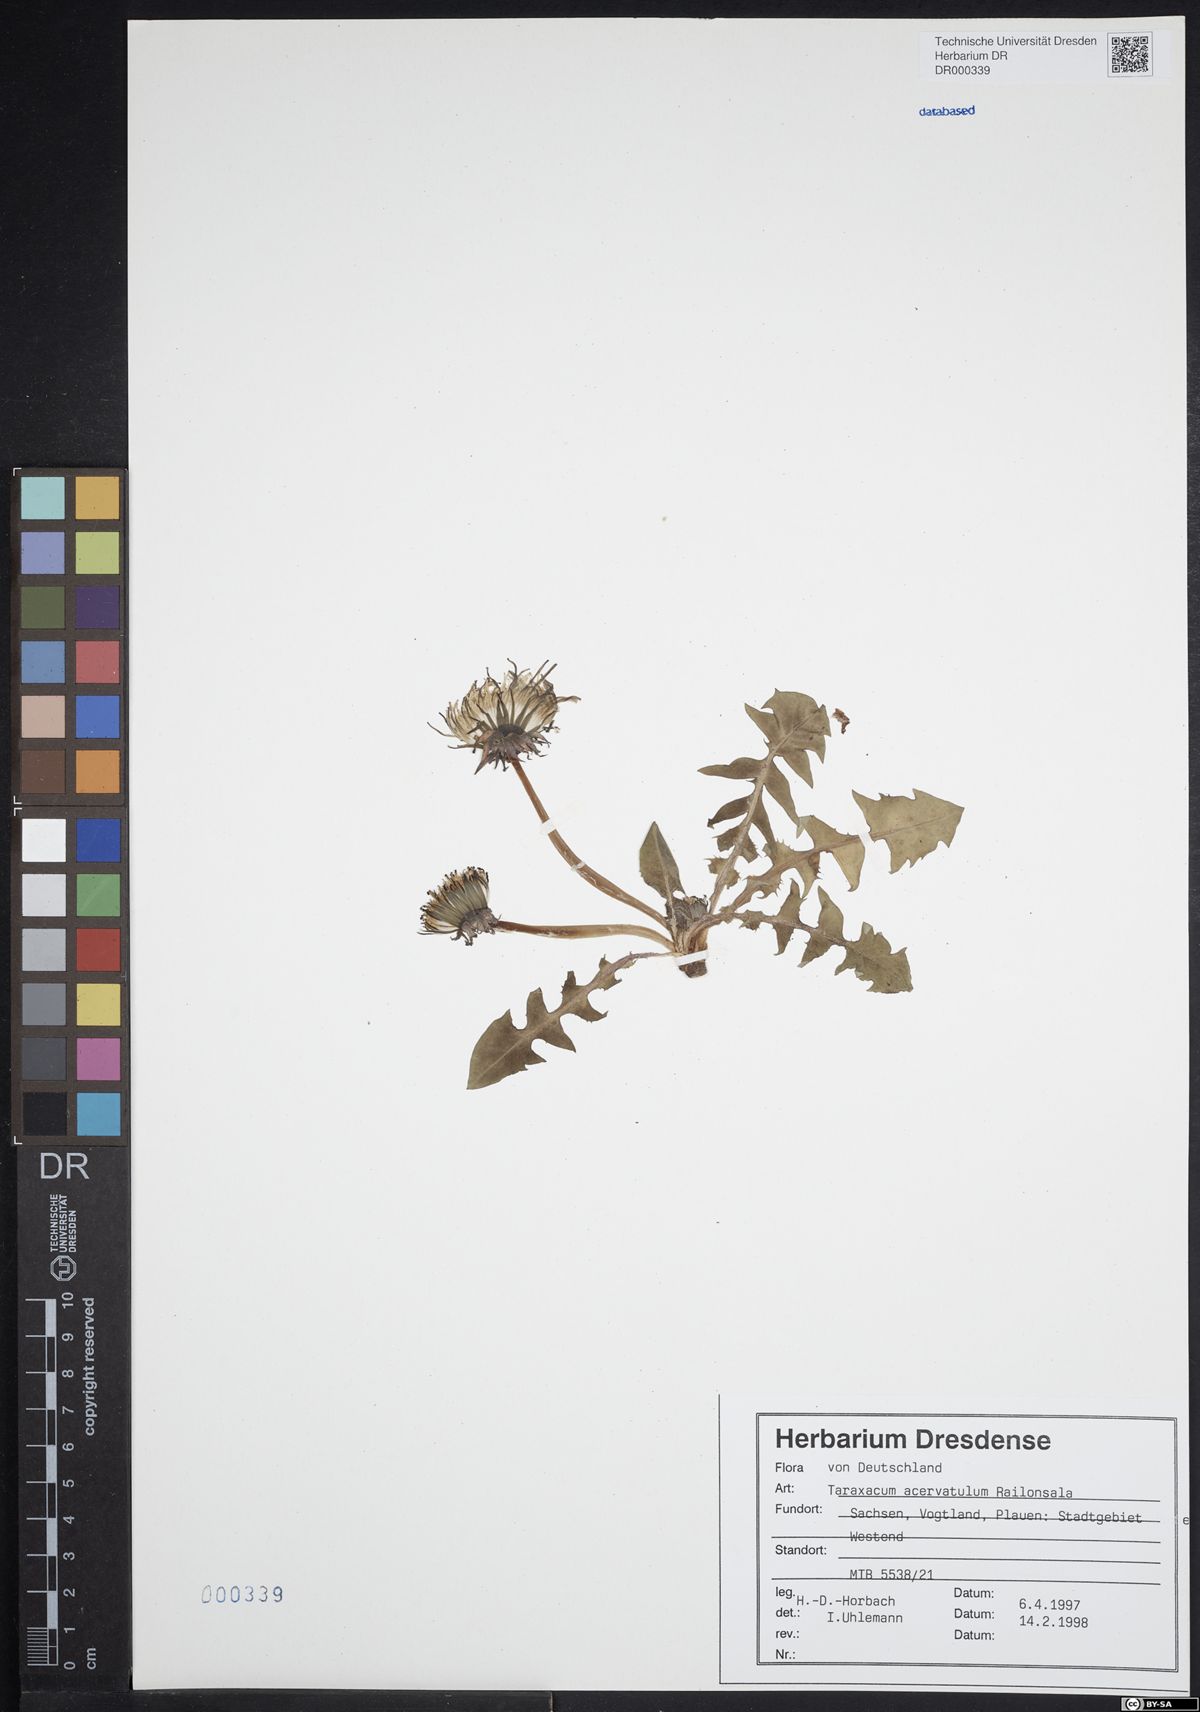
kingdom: Plantae
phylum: Tracheophyta
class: Magnoliopsida
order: Asterales
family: Asteraceae
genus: Taraxacum
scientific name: Taraxacum acervatulum
